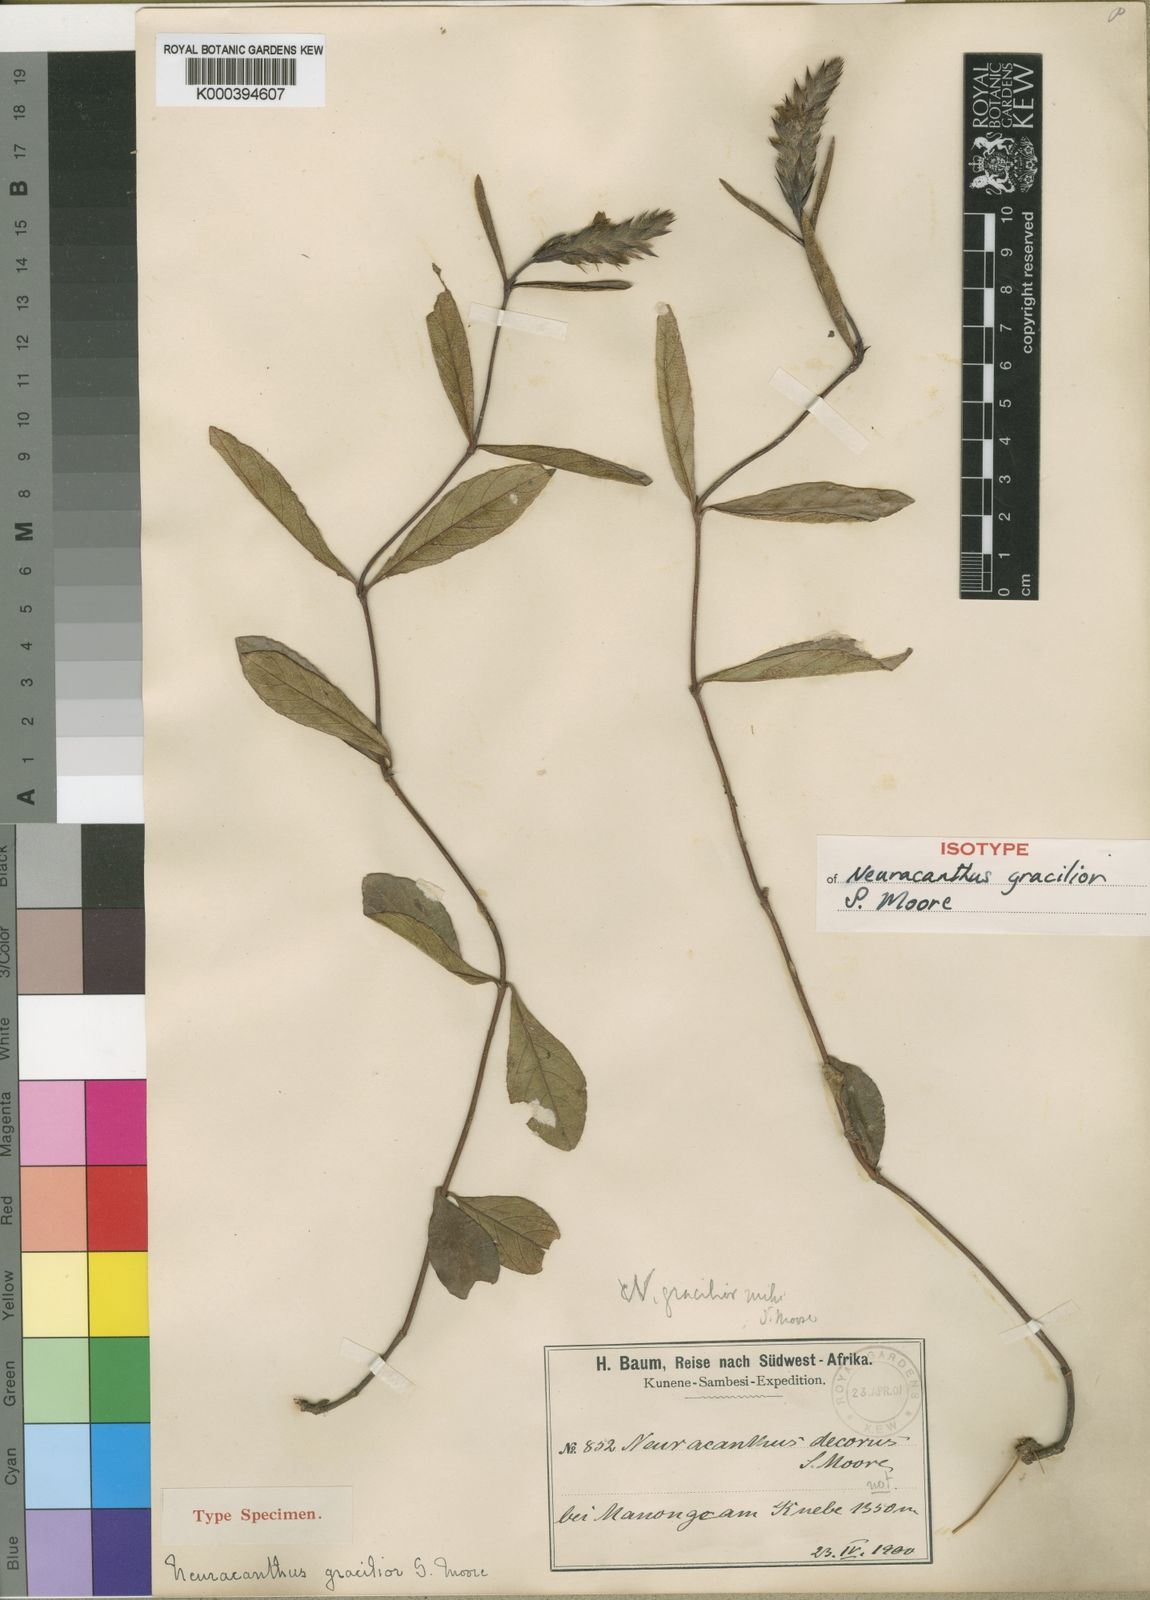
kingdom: Plantae
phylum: Tracheophyta
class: Magnoliopsida
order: Lamiales
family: Acanthaceae
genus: Neuracanthus
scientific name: Neuracanthus gracilior
